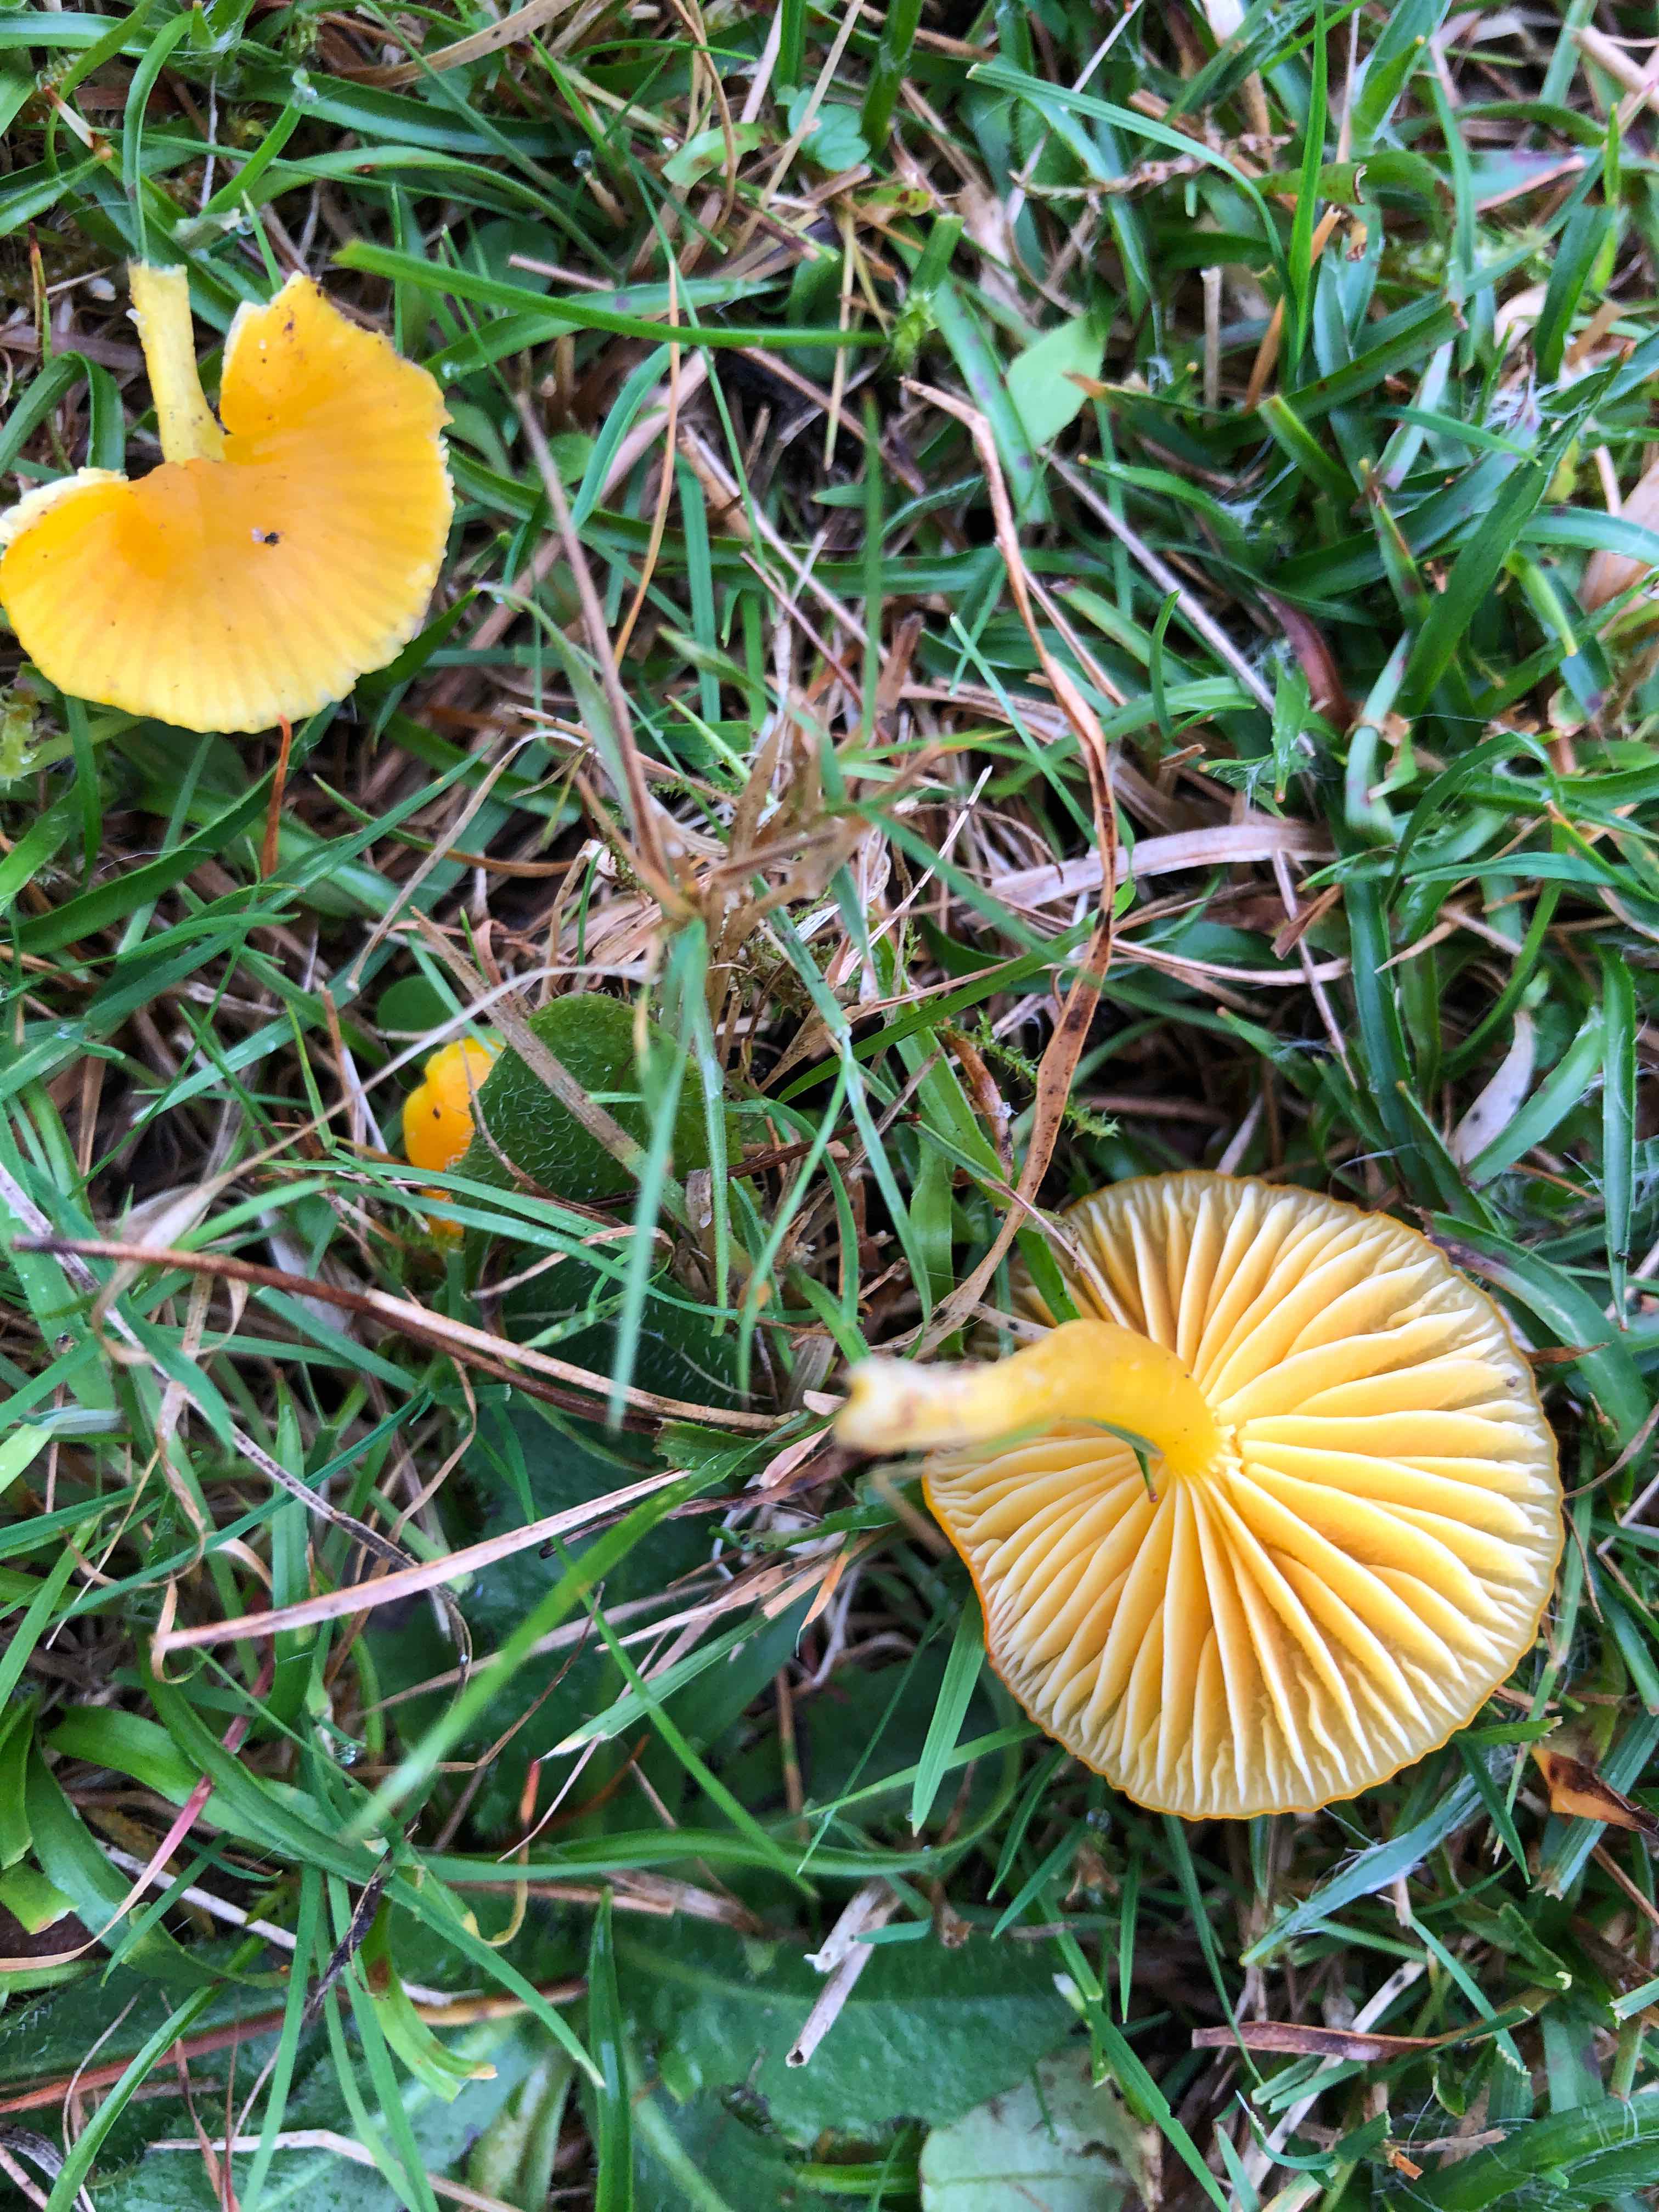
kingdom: Fungi
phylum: Basidiomycota
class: Agaricomycetes
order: Agaricales
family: Hygrophoraceae
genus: Hygrocybe
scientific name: Hygrocybe ceracea
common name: voksgul vokshat
